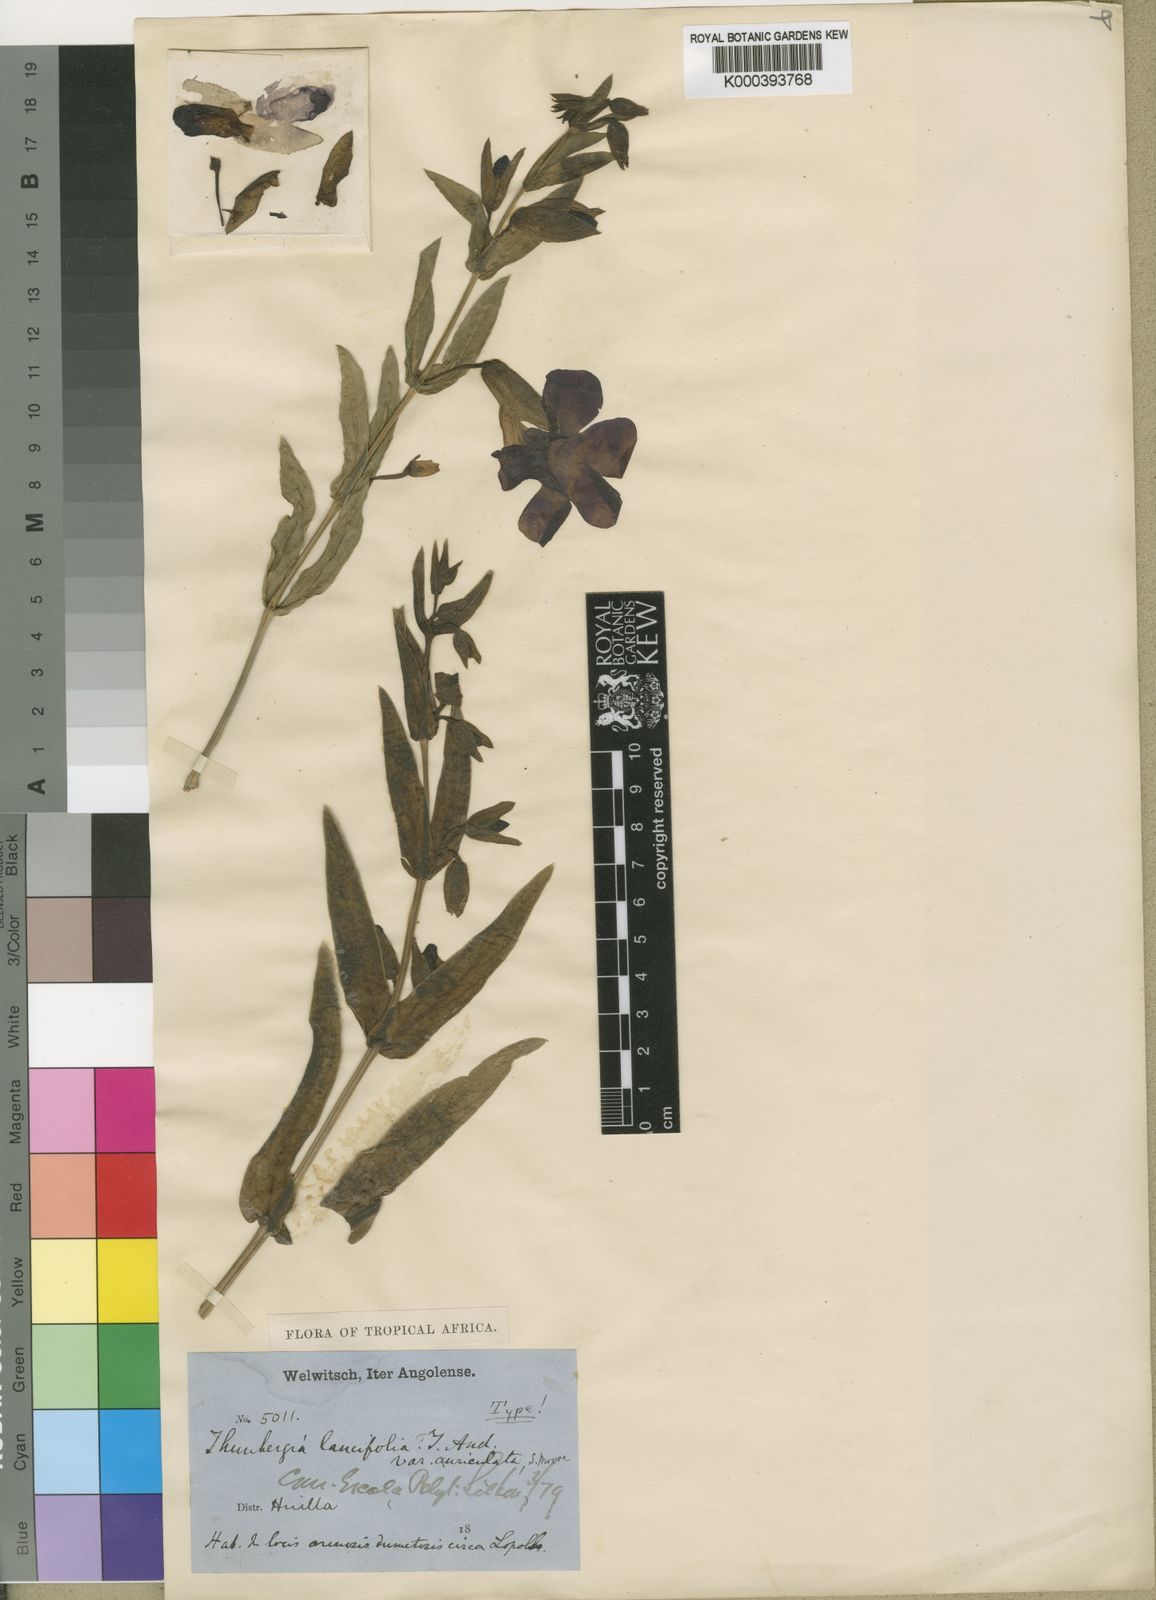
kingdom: Plantae
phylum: Tracheophyta
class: Magnoliopsida
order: Lamiales
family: Acanthaceae
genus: Thunbergia
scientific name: Thunbergia lancifolia
